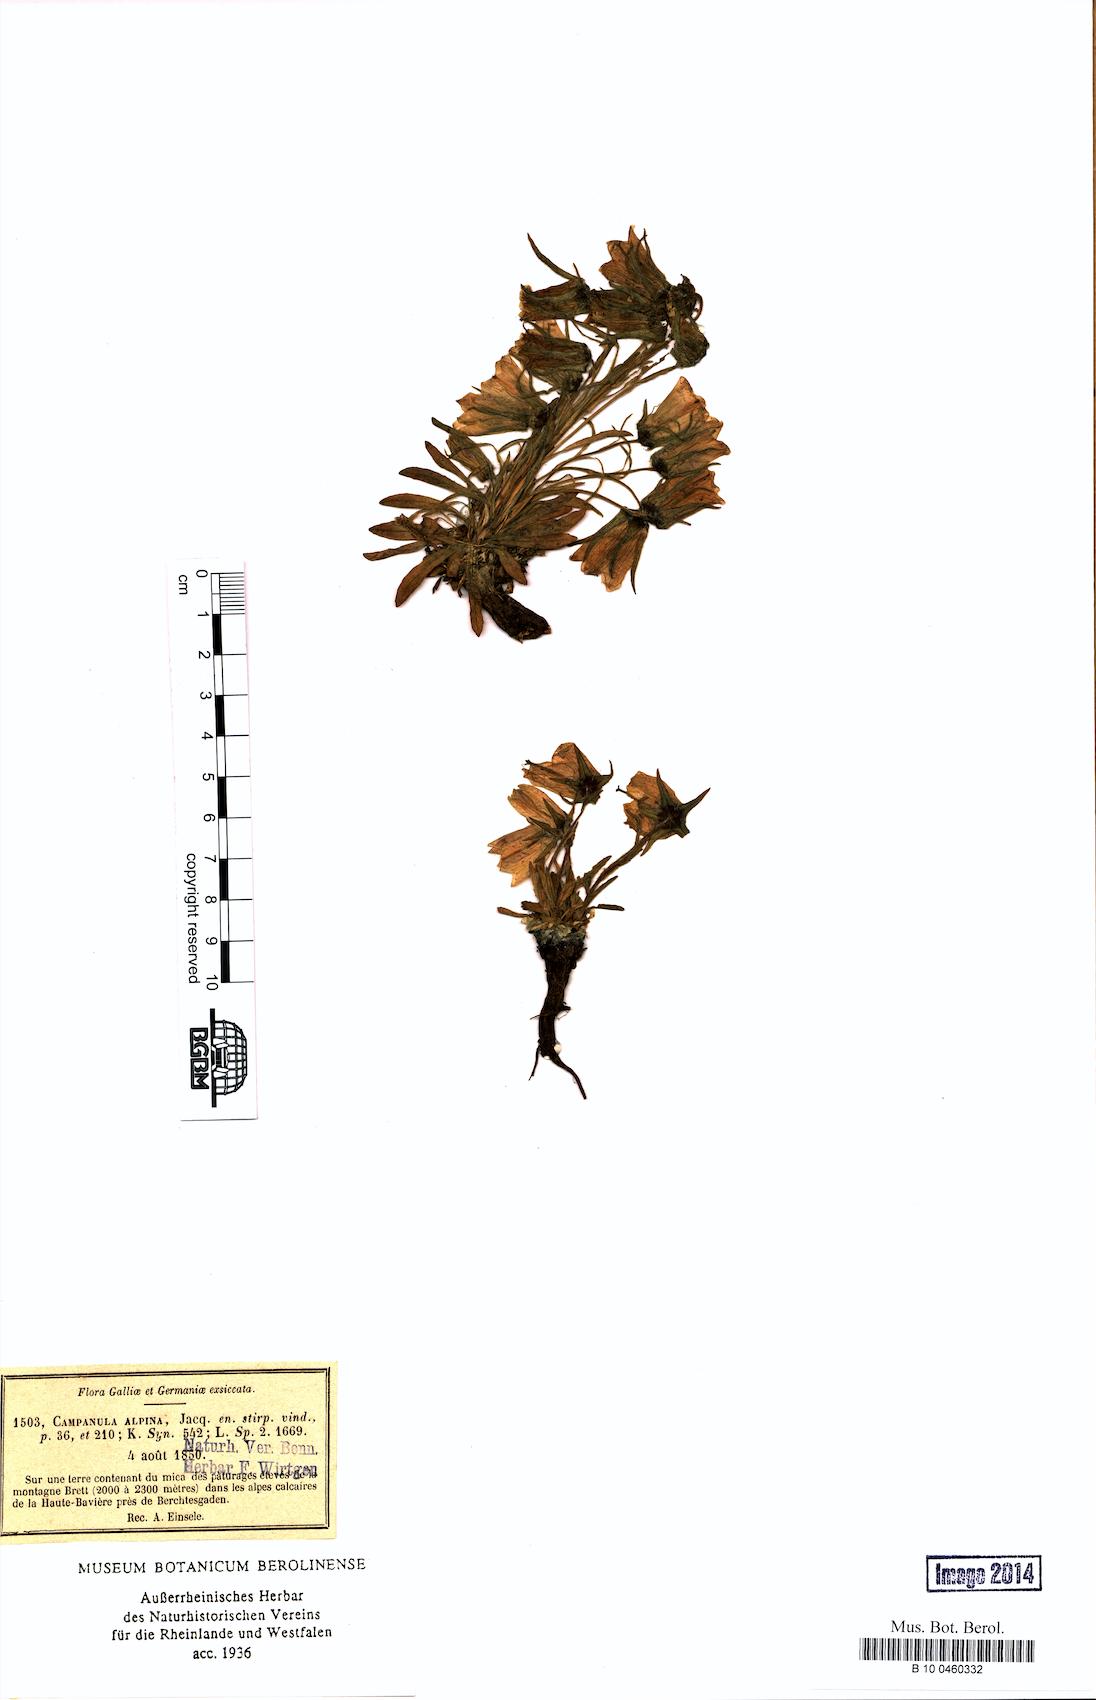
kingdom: Plantae
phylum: Tracheophyta
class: Magnoliopsida
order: Asterales
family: Campanulaceae
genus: Campanula
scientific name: Campanula alpina
